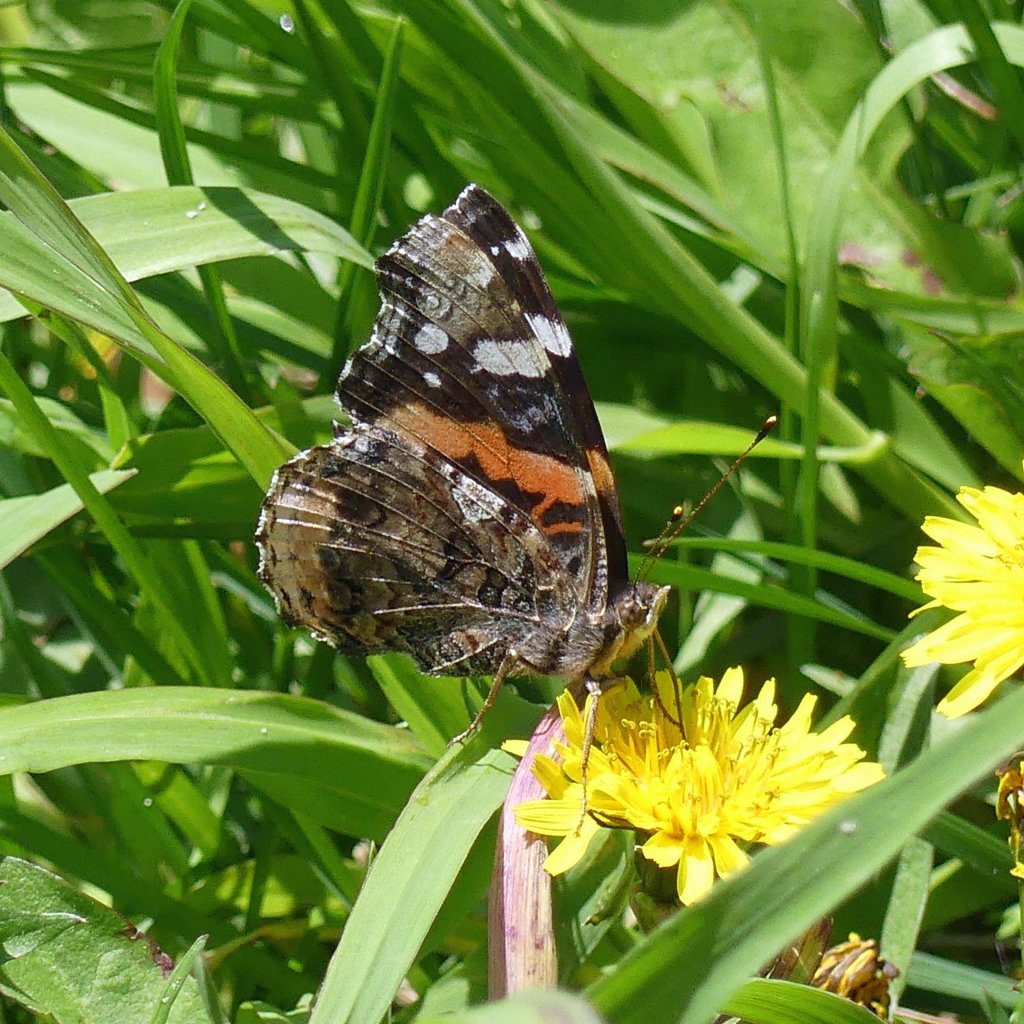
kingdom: Animalia
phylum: Arthropoda
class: Insecta
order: Lepidoptera
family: Nymphalidae
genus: Vanessa
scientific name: Vanessa atalanta
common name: Red Admiral
